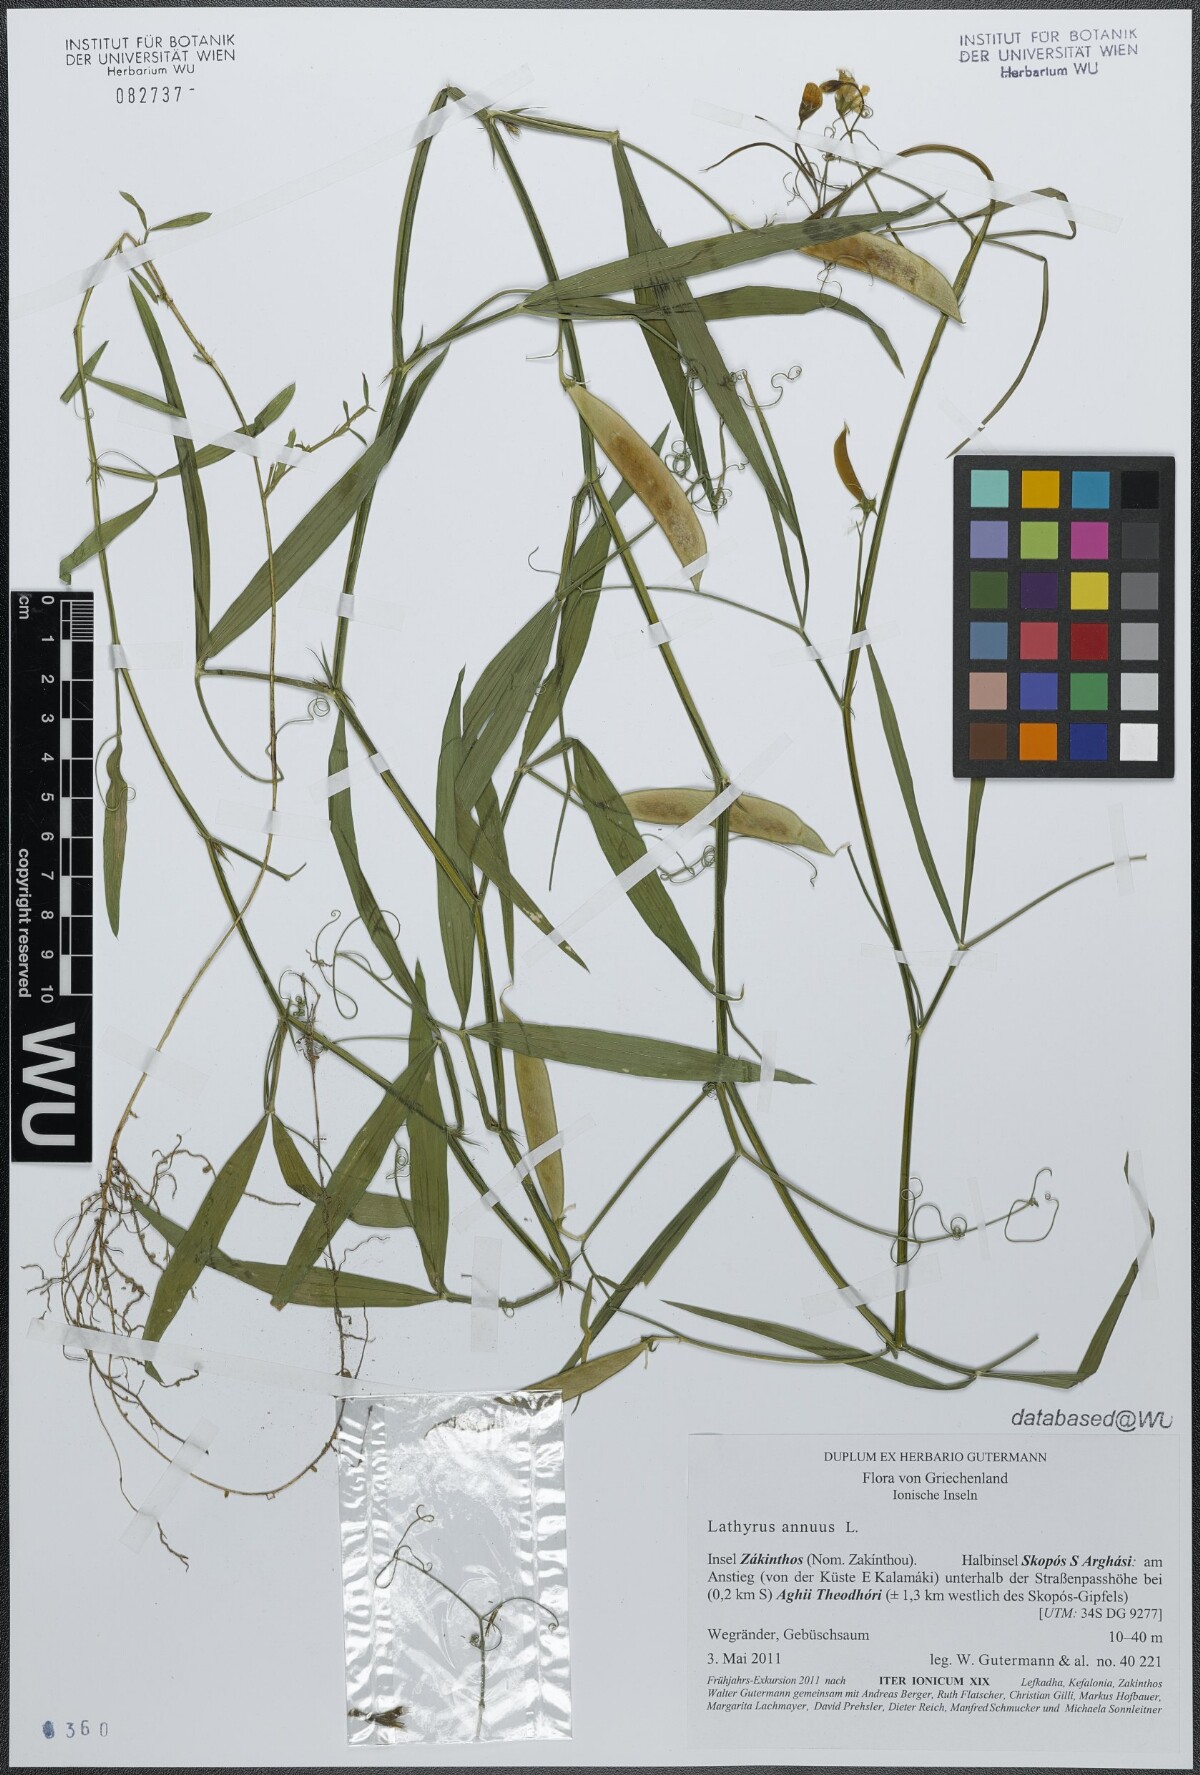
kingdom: Plantae
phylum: Tracheophyta
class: Magnoliopsida
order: Fabales
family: Fabaceae
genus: Lathyrus
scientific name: Lathyrus annuus
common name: Fodder pea
